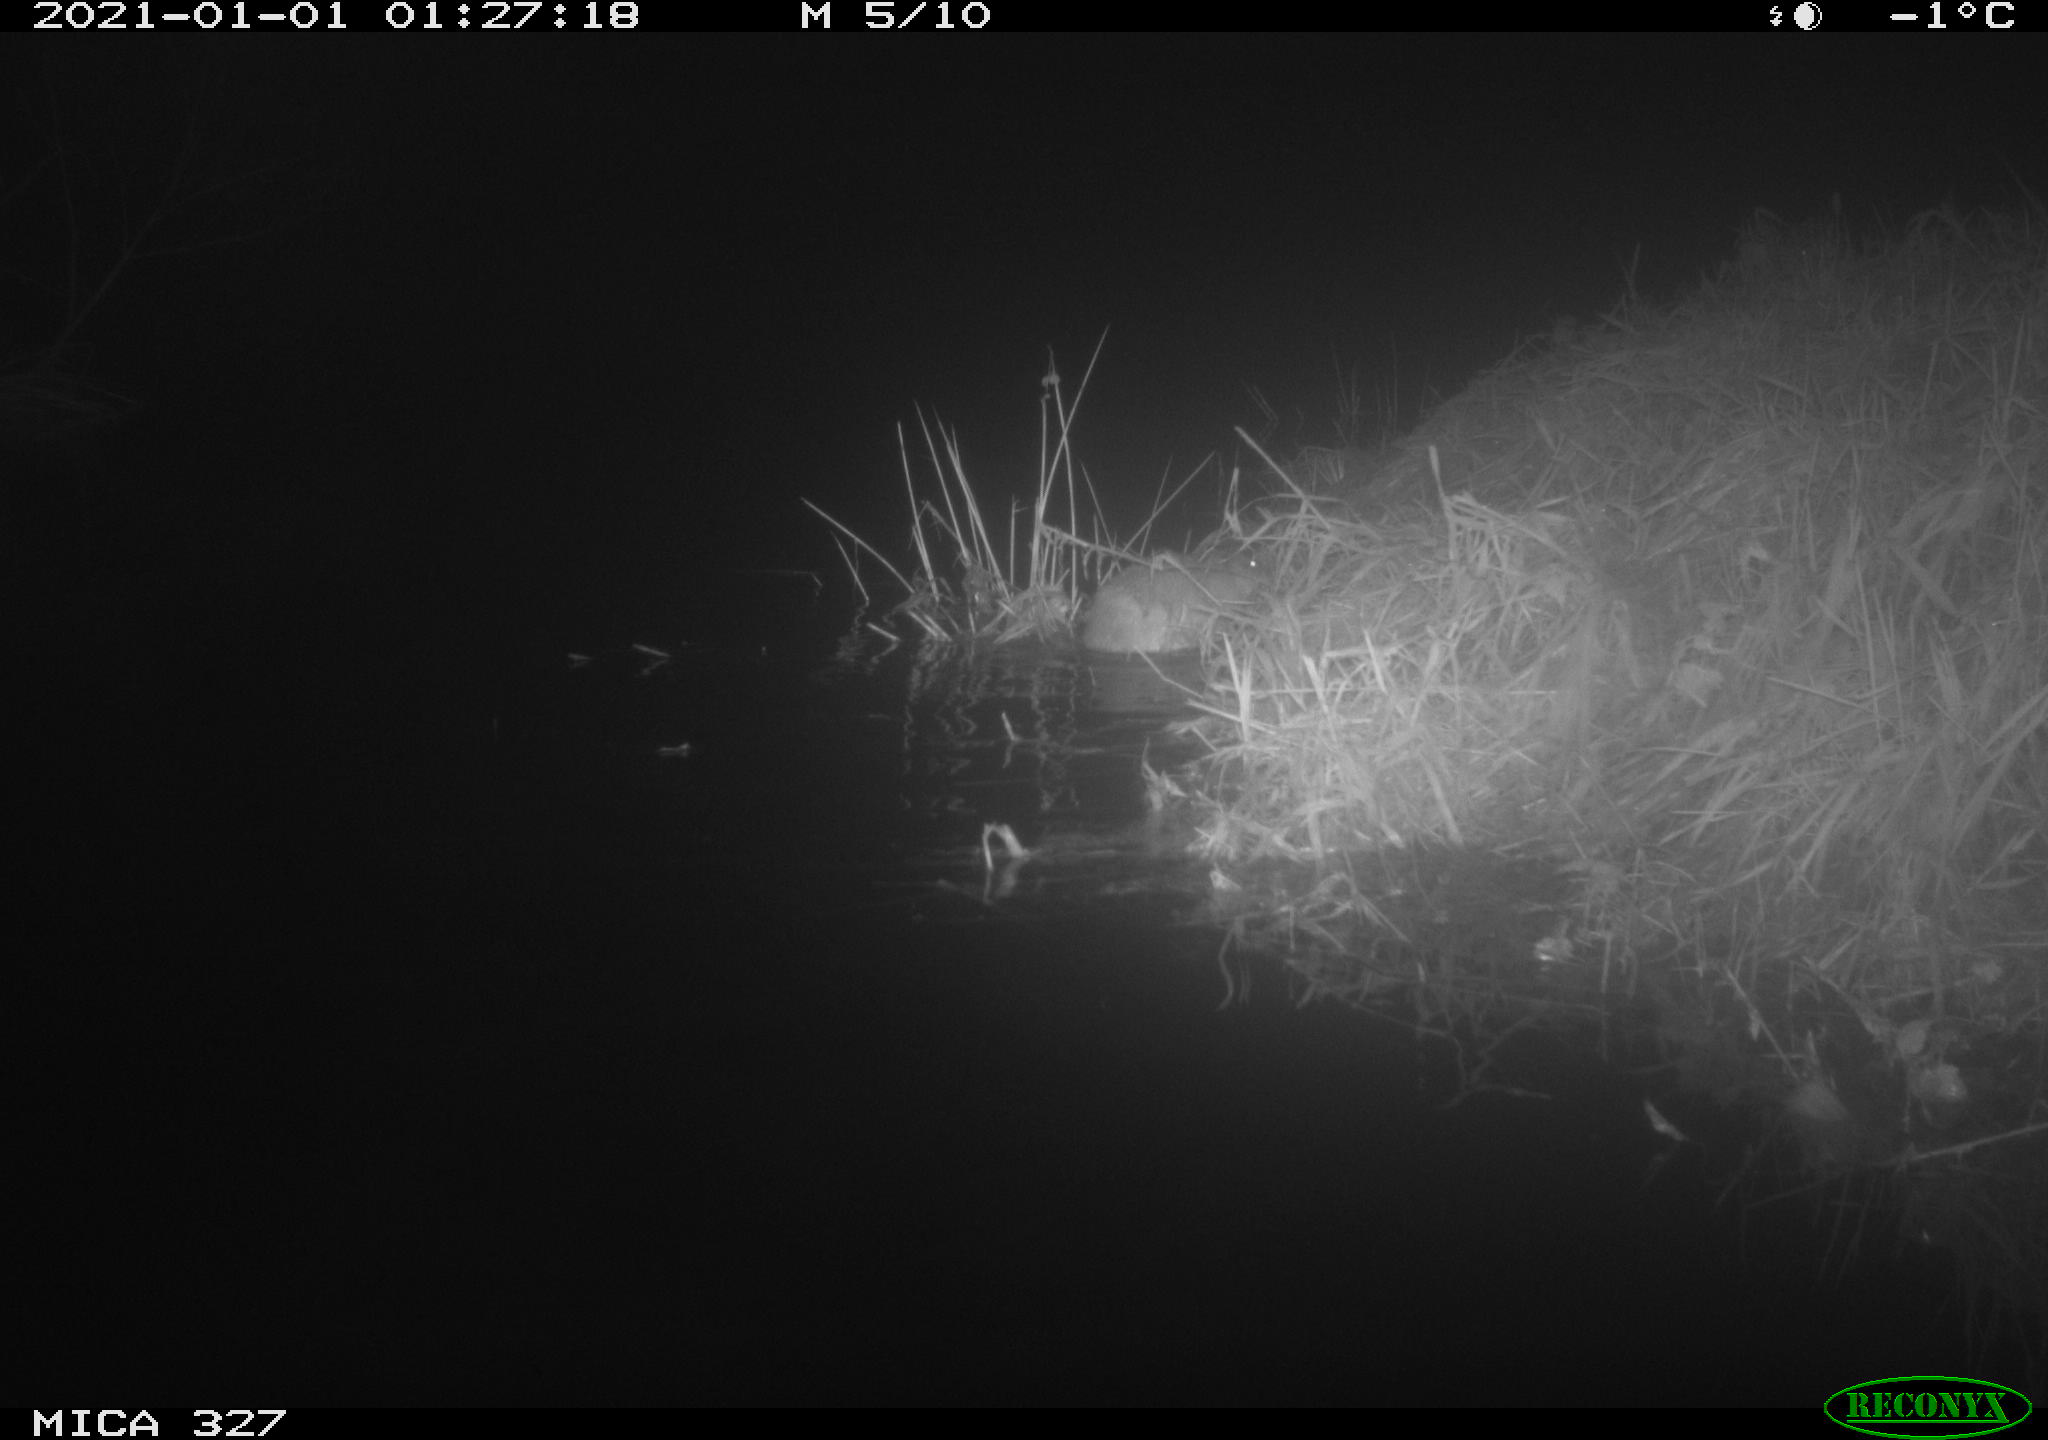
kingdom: Animalia
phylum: Chordata
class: Mammalia
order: Rodentia
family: Cricetidae
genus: Ondatra
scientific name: Ondatra zibethicus
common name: Muskrat
